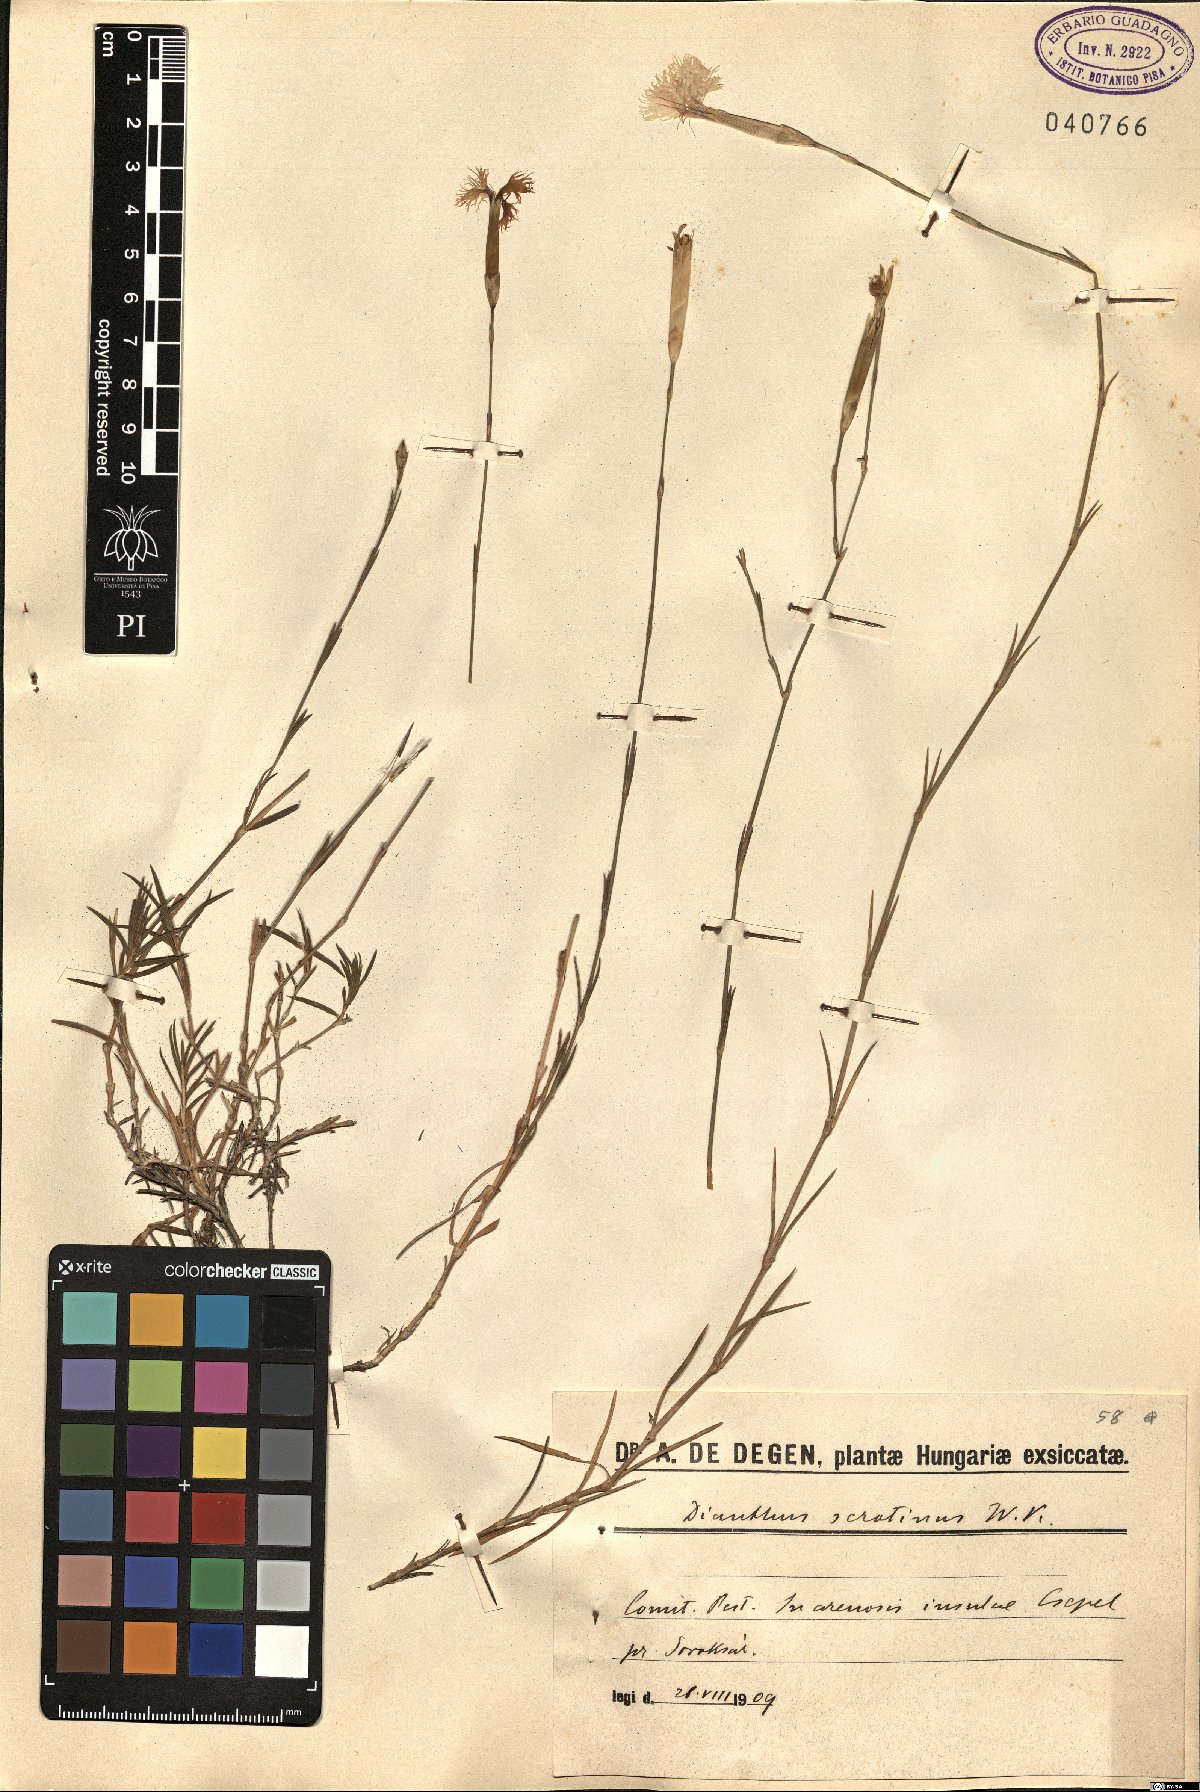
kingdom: Plantae
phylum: Tracheophyta
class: Magnoliopsida
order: Caryophyllales
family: Caryophyllaceae
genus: Dianthus
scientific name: Dianthus serotinus
